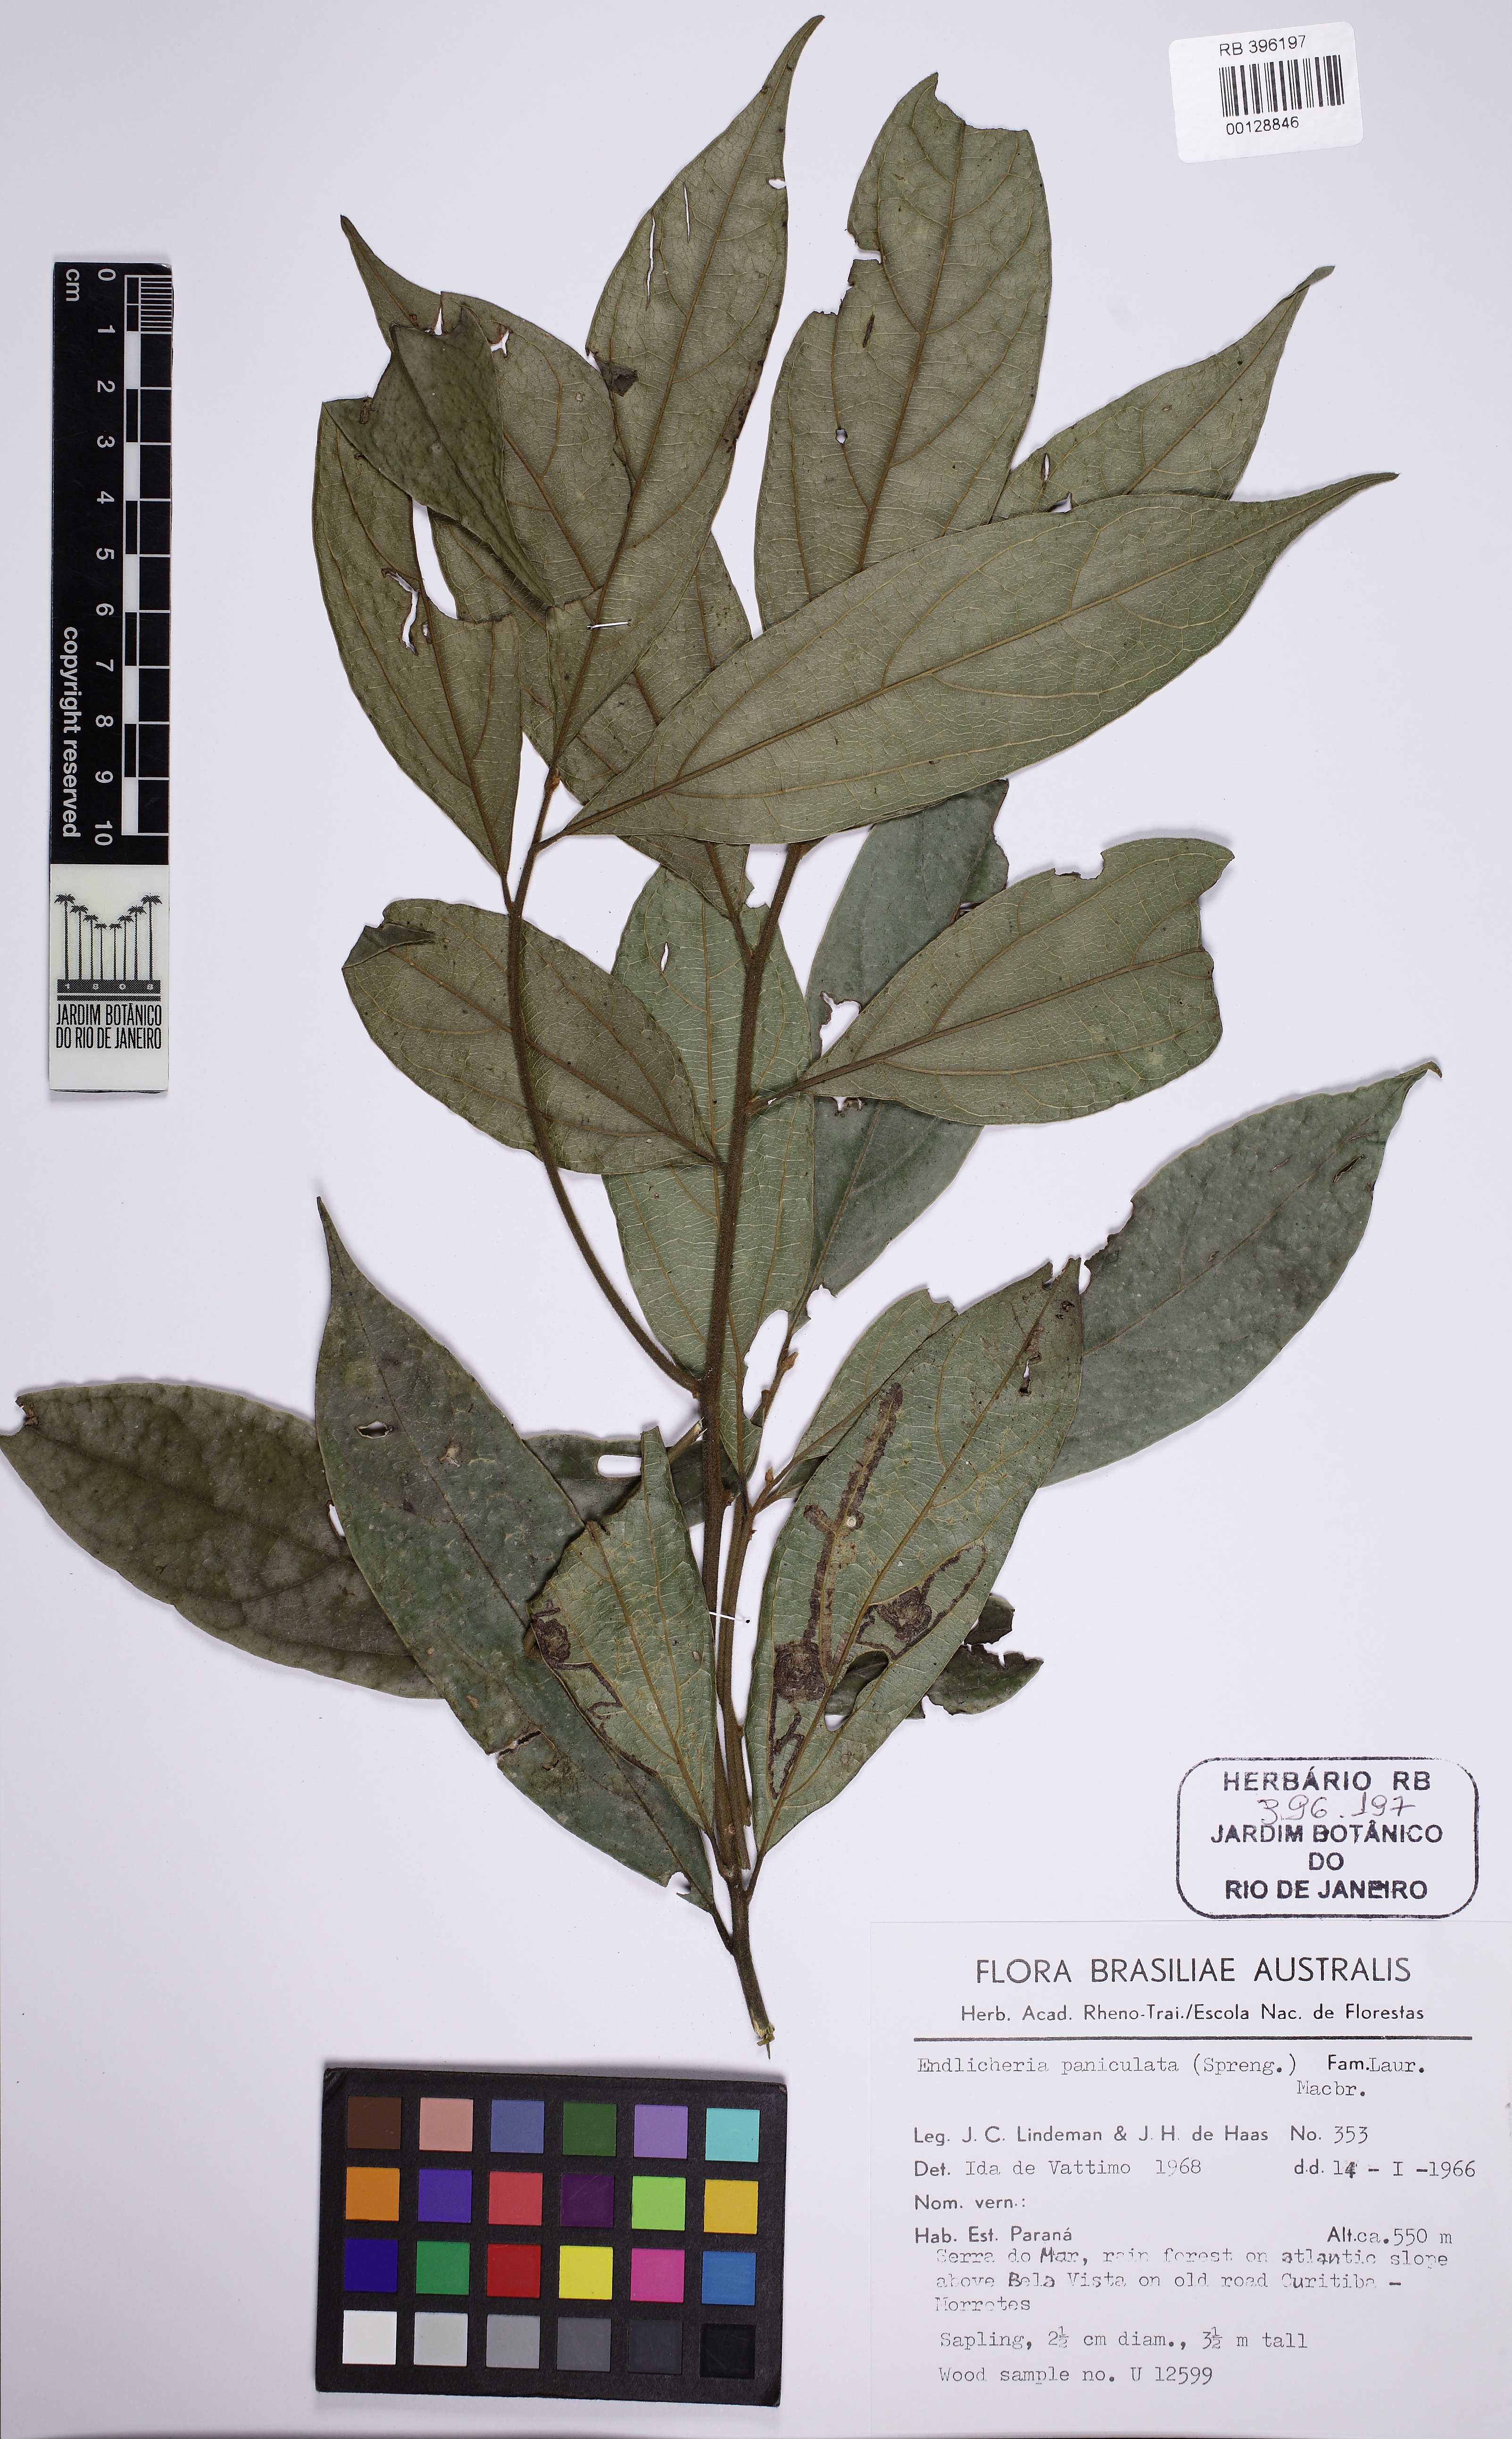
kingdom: Plantae
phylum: Tracheophyta
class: Magnoliopsida
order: Laurales
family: Lauraceae
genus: Endlicheria
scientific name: Endlicheria paniculata
